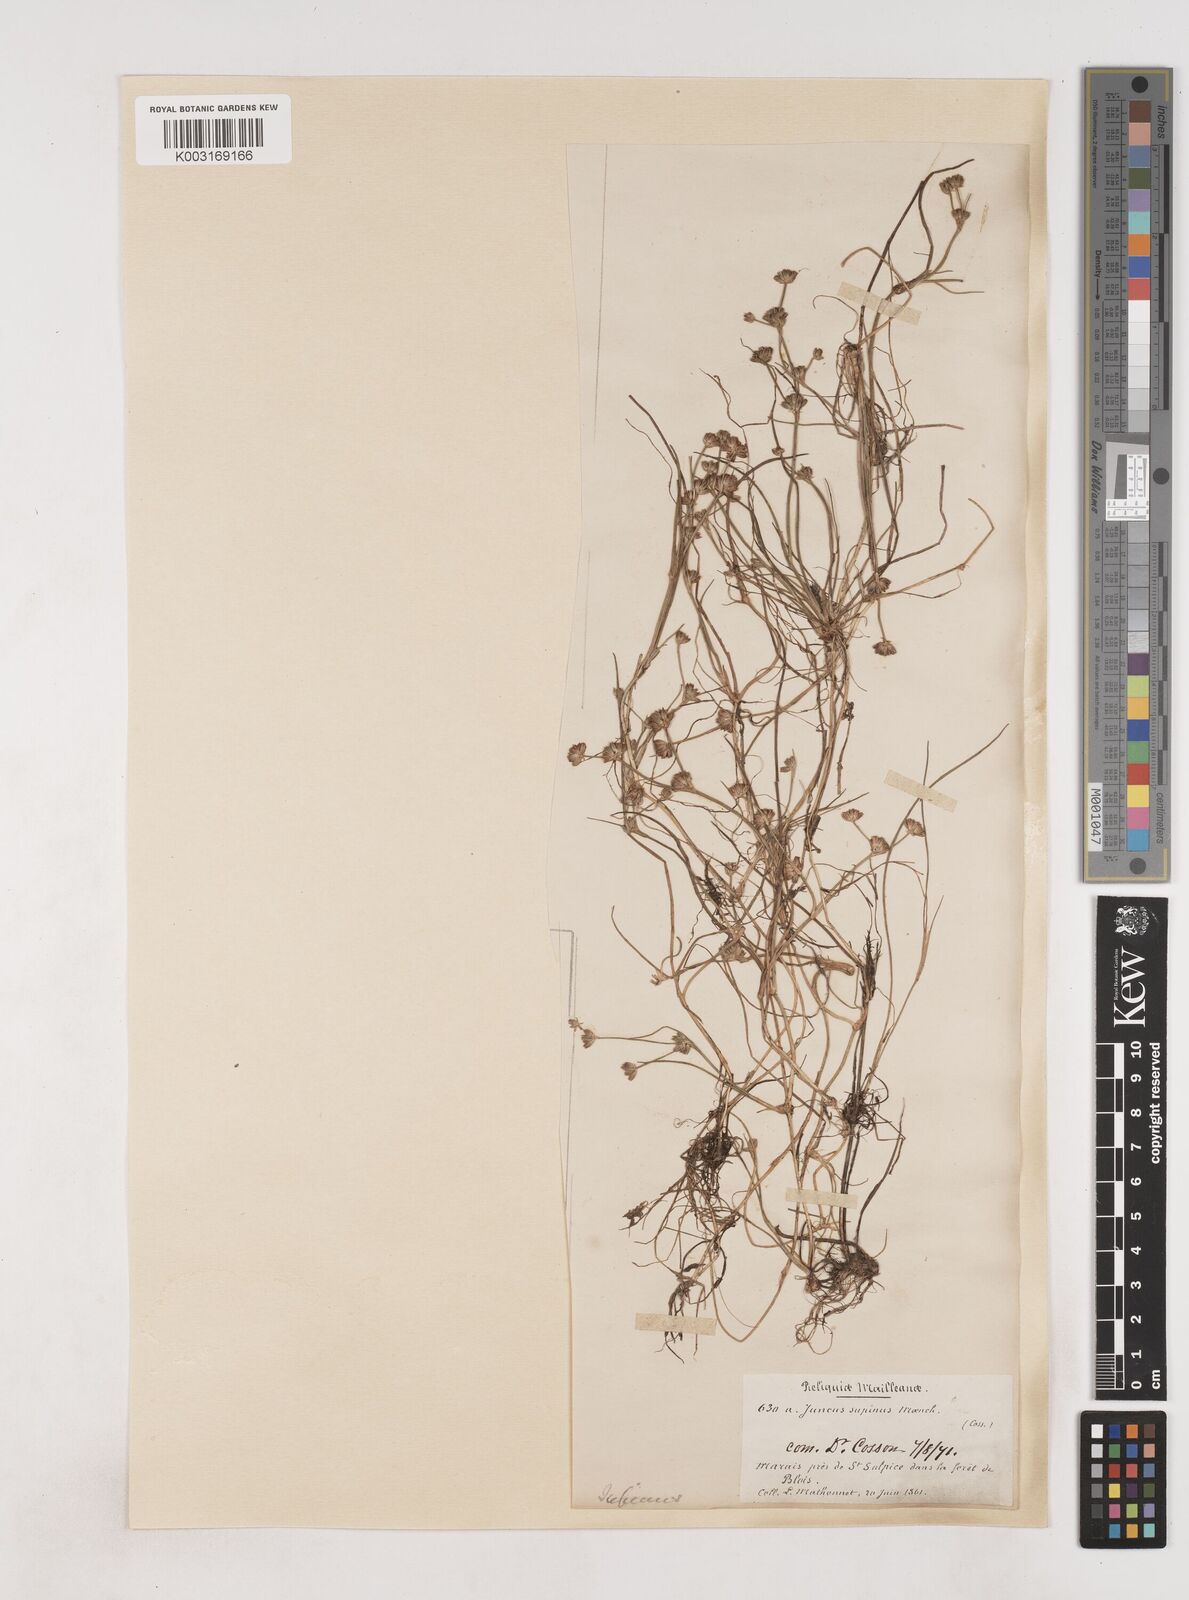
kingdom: Plantae
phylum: Tracheophyta
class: Liliopsida
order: Poales
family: Juncaceae
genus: Juncus
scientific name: Juncus bulbosus
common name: Bulbous rush
